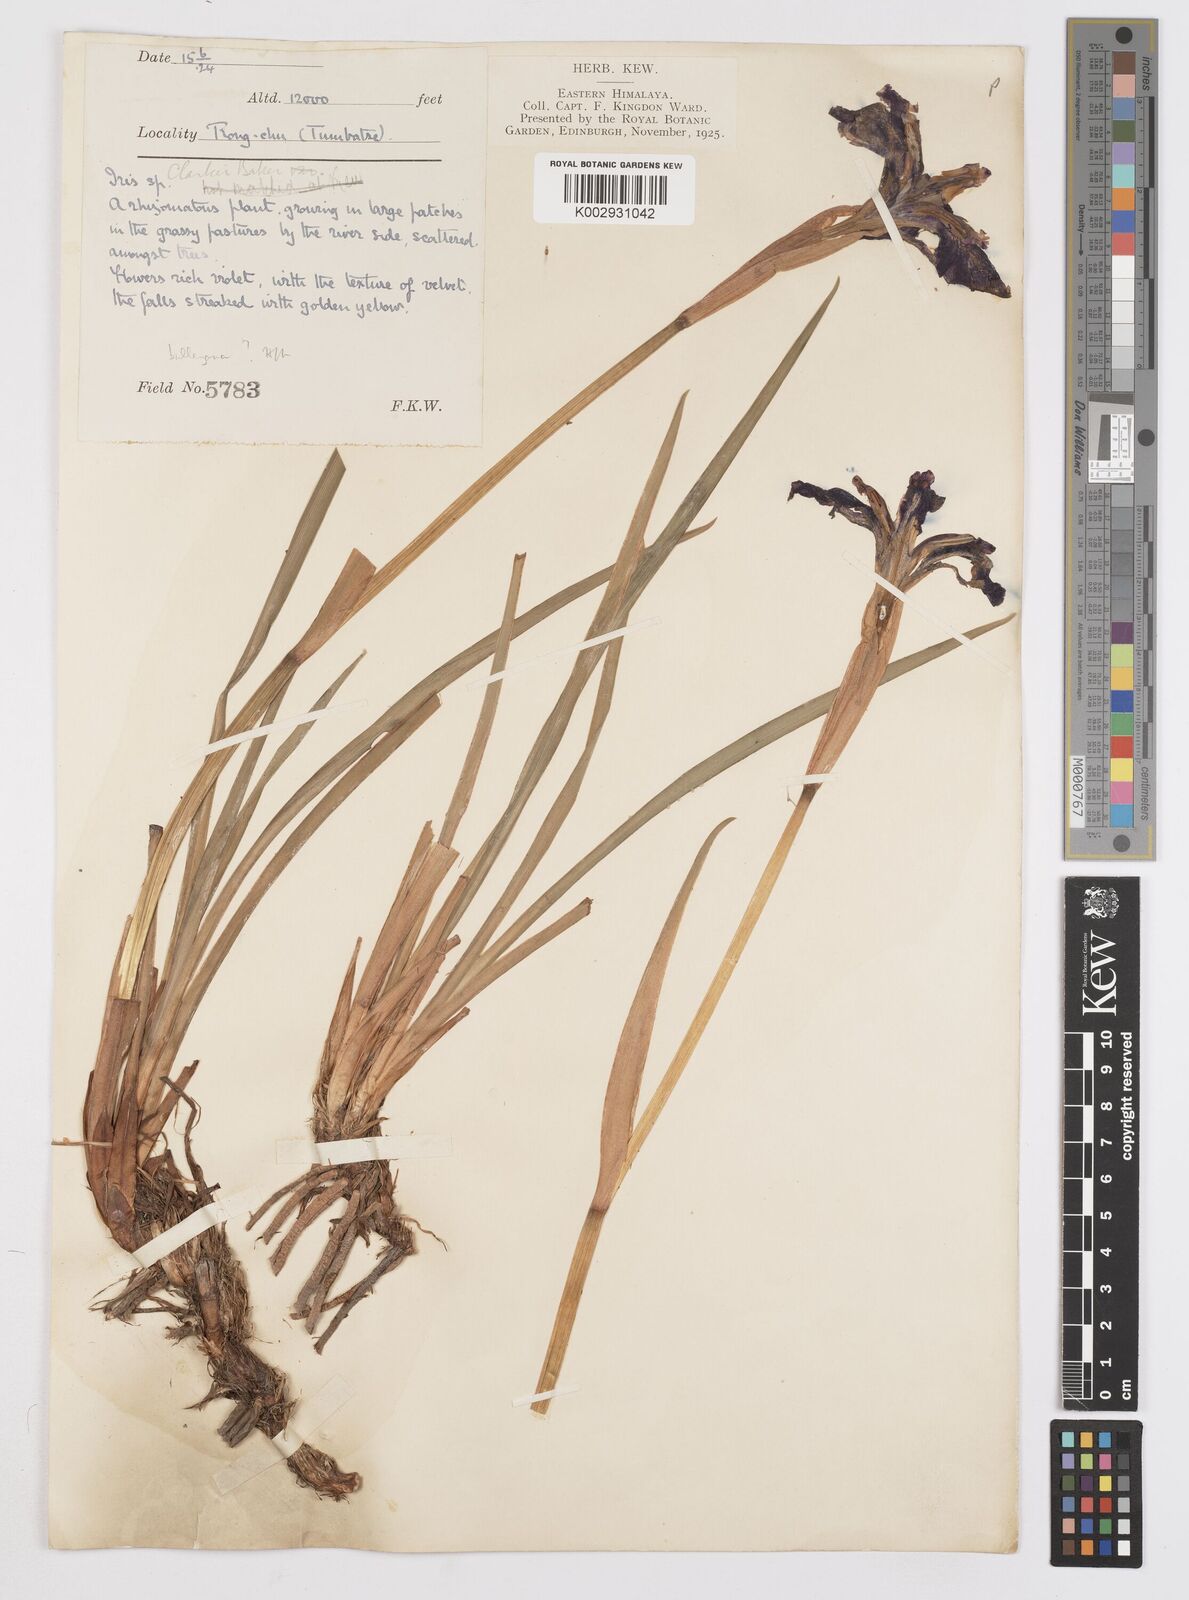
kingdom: Plantae
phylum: Tracheophyta
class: Liliopsida
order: Asparagales
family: Iridaceae
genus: Iris
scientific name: Iris clarkei
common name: Tibet iris
